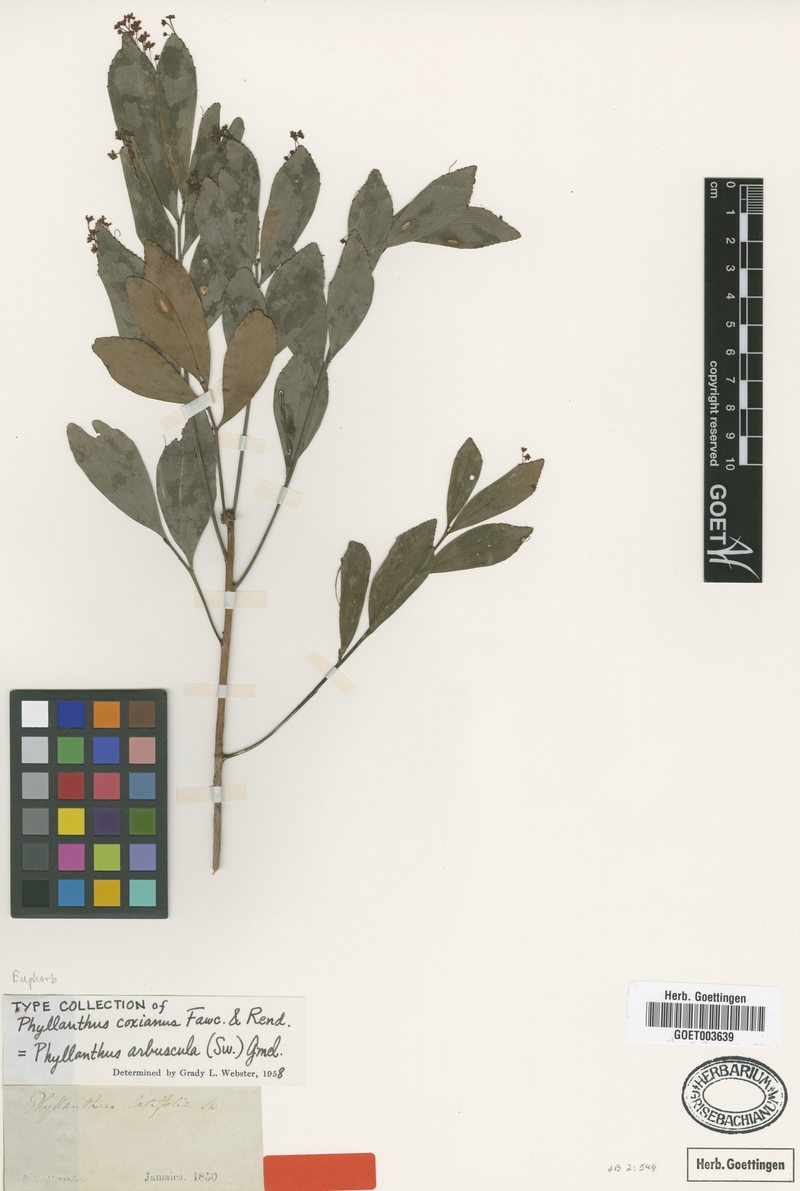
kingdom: Plantae
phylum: Tracheophyta
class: Magnoliopsida
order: Malpighiales
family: Phyllanthaceae
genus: Phyllanthus
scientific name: Phyllanthus arbuscula
